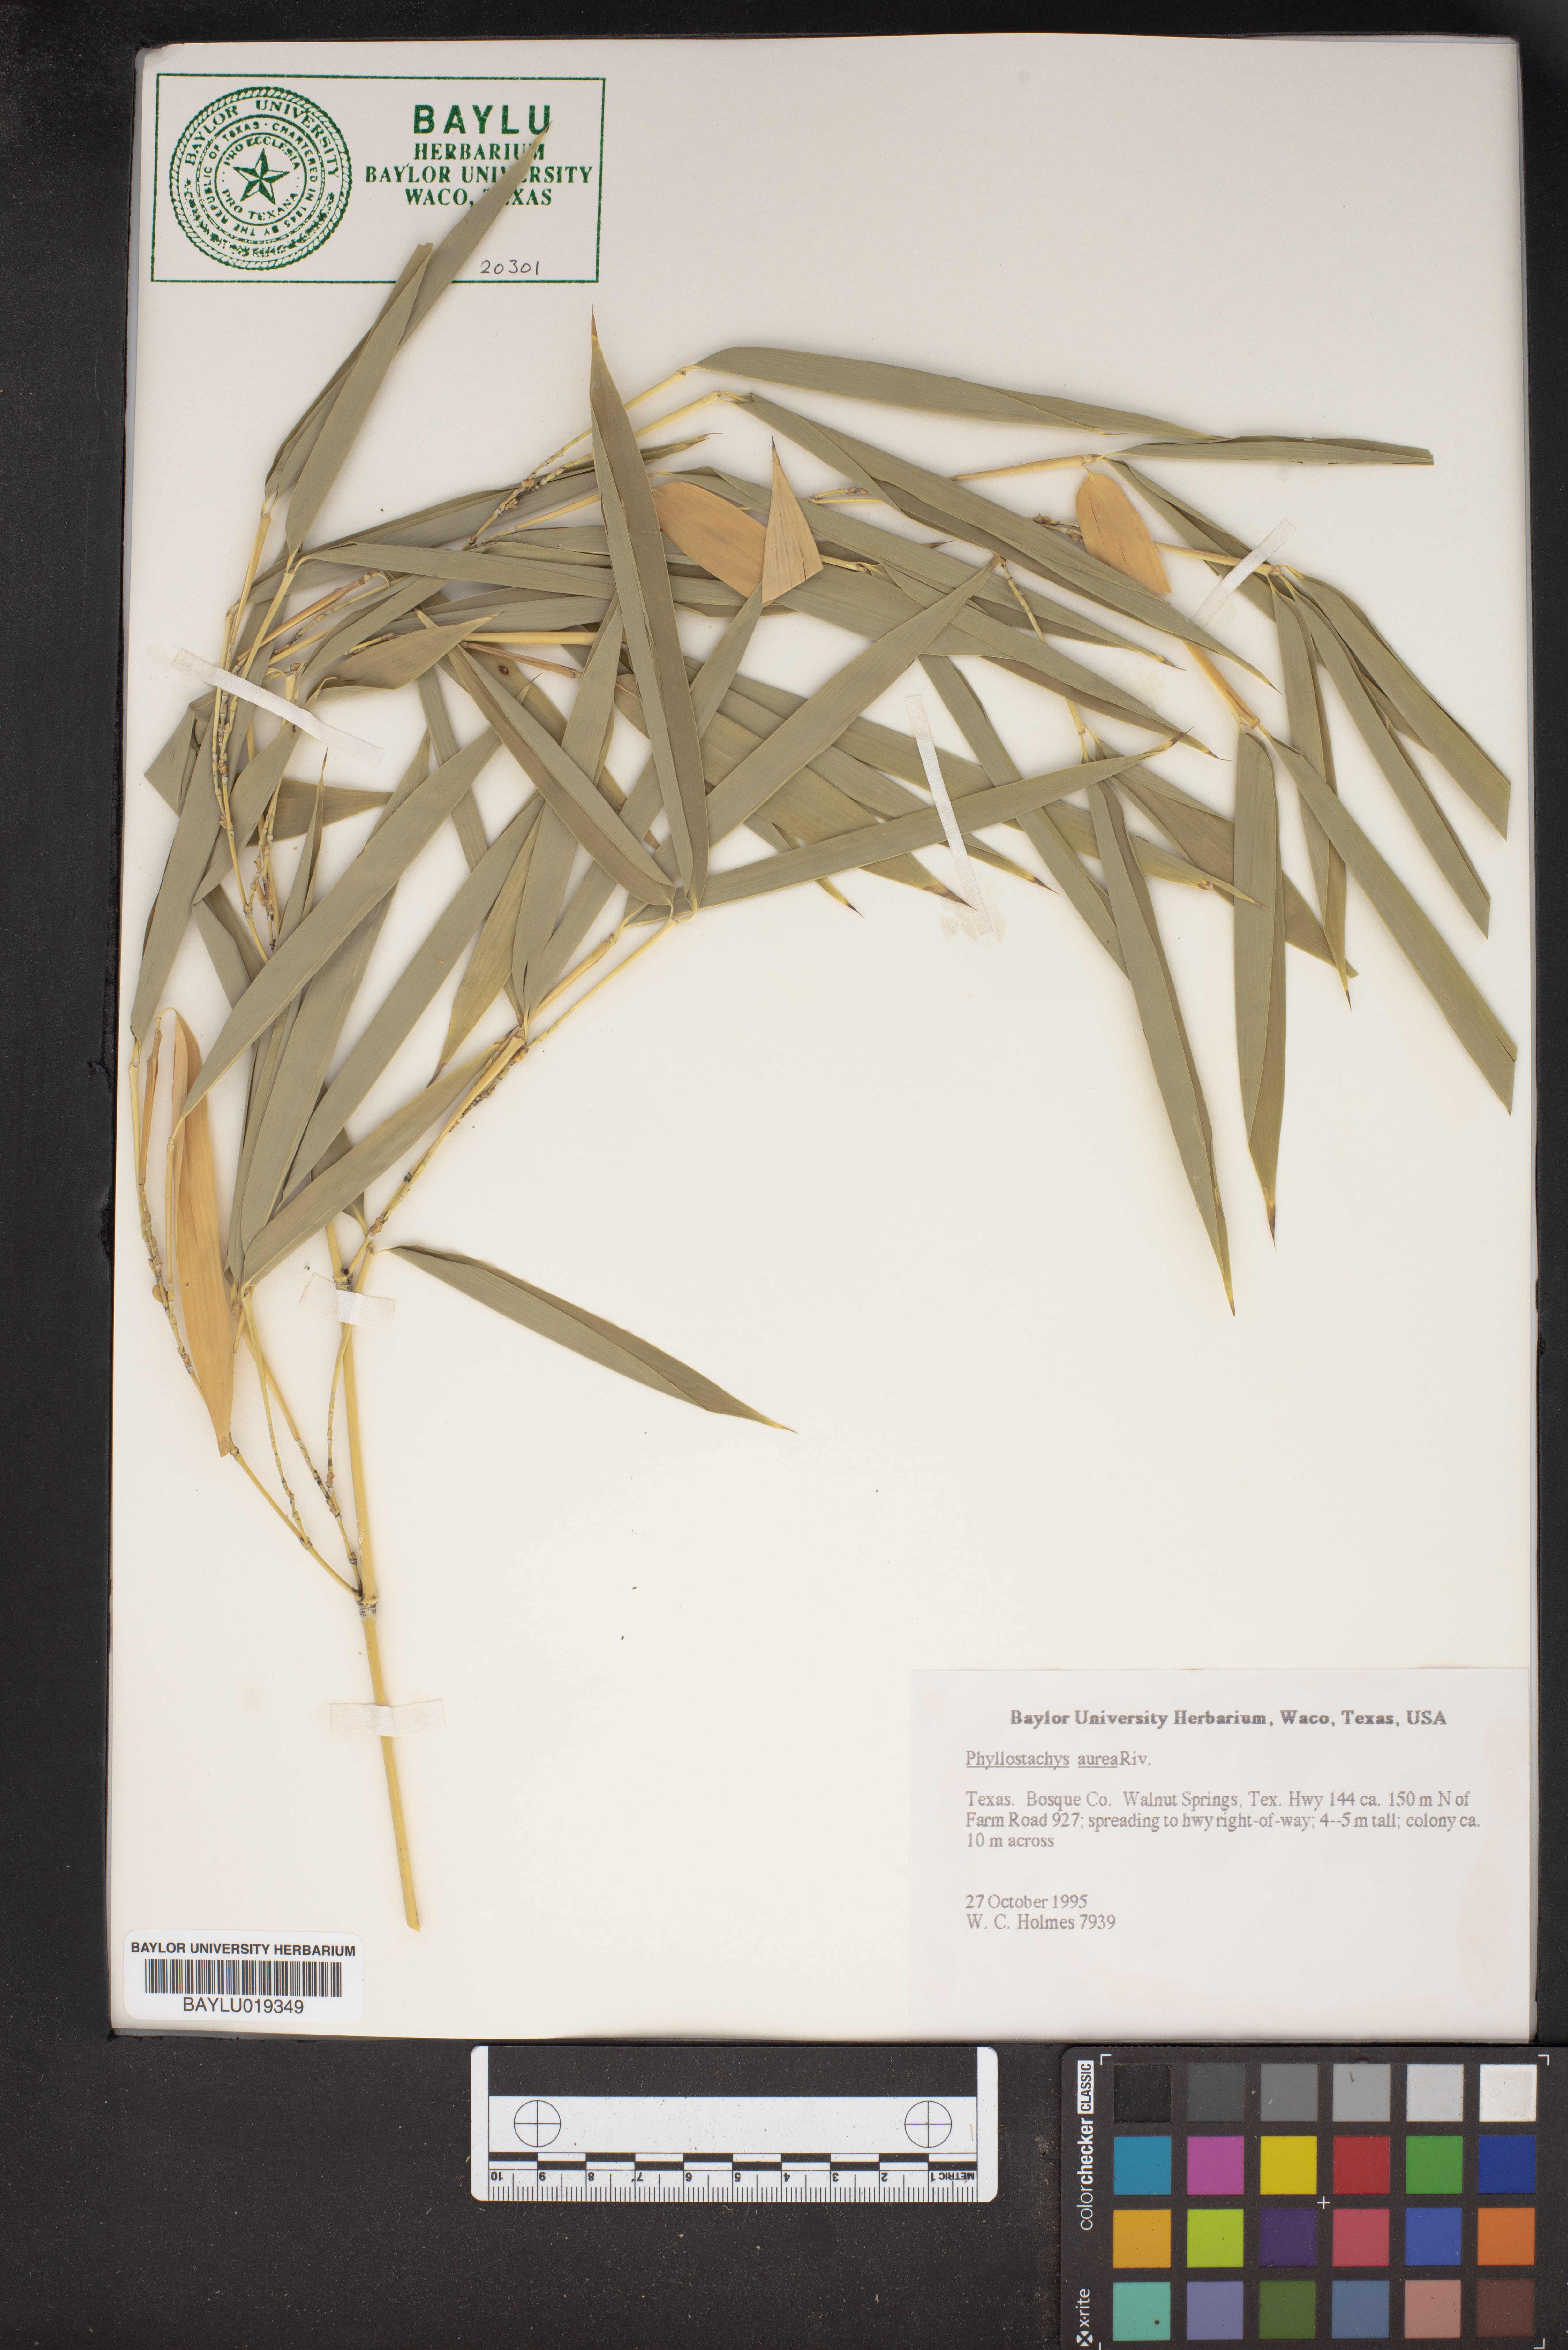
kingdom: Plantae
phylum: Tracheophyta
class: Liliopsida
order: Poales
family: Poaceae
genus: Phyllostachys
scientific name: Phyllostachys aurea
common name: Golden bamboo
